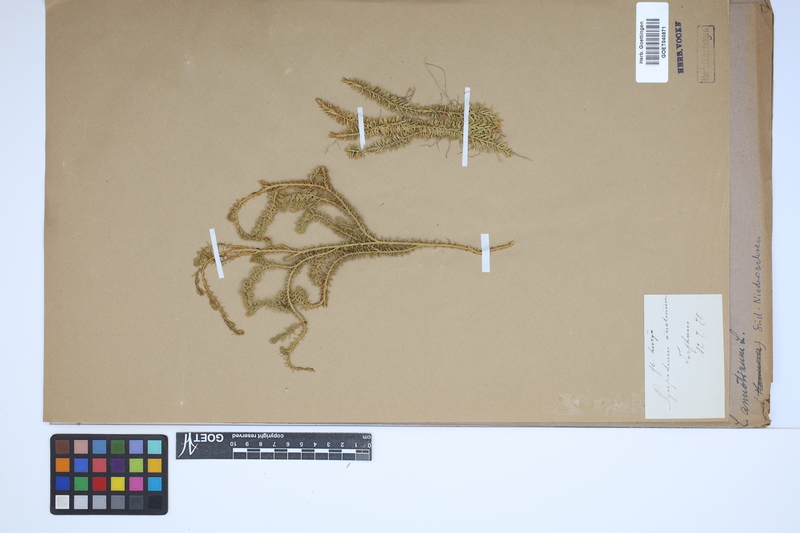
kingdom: Plantae
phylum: Tracheophyta
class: Lycopodiopsida
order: Lycopodiales
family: Lycopodiaceae
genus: Spinulum
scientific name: Spinulum annotinum
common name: Interrupted club-moss
